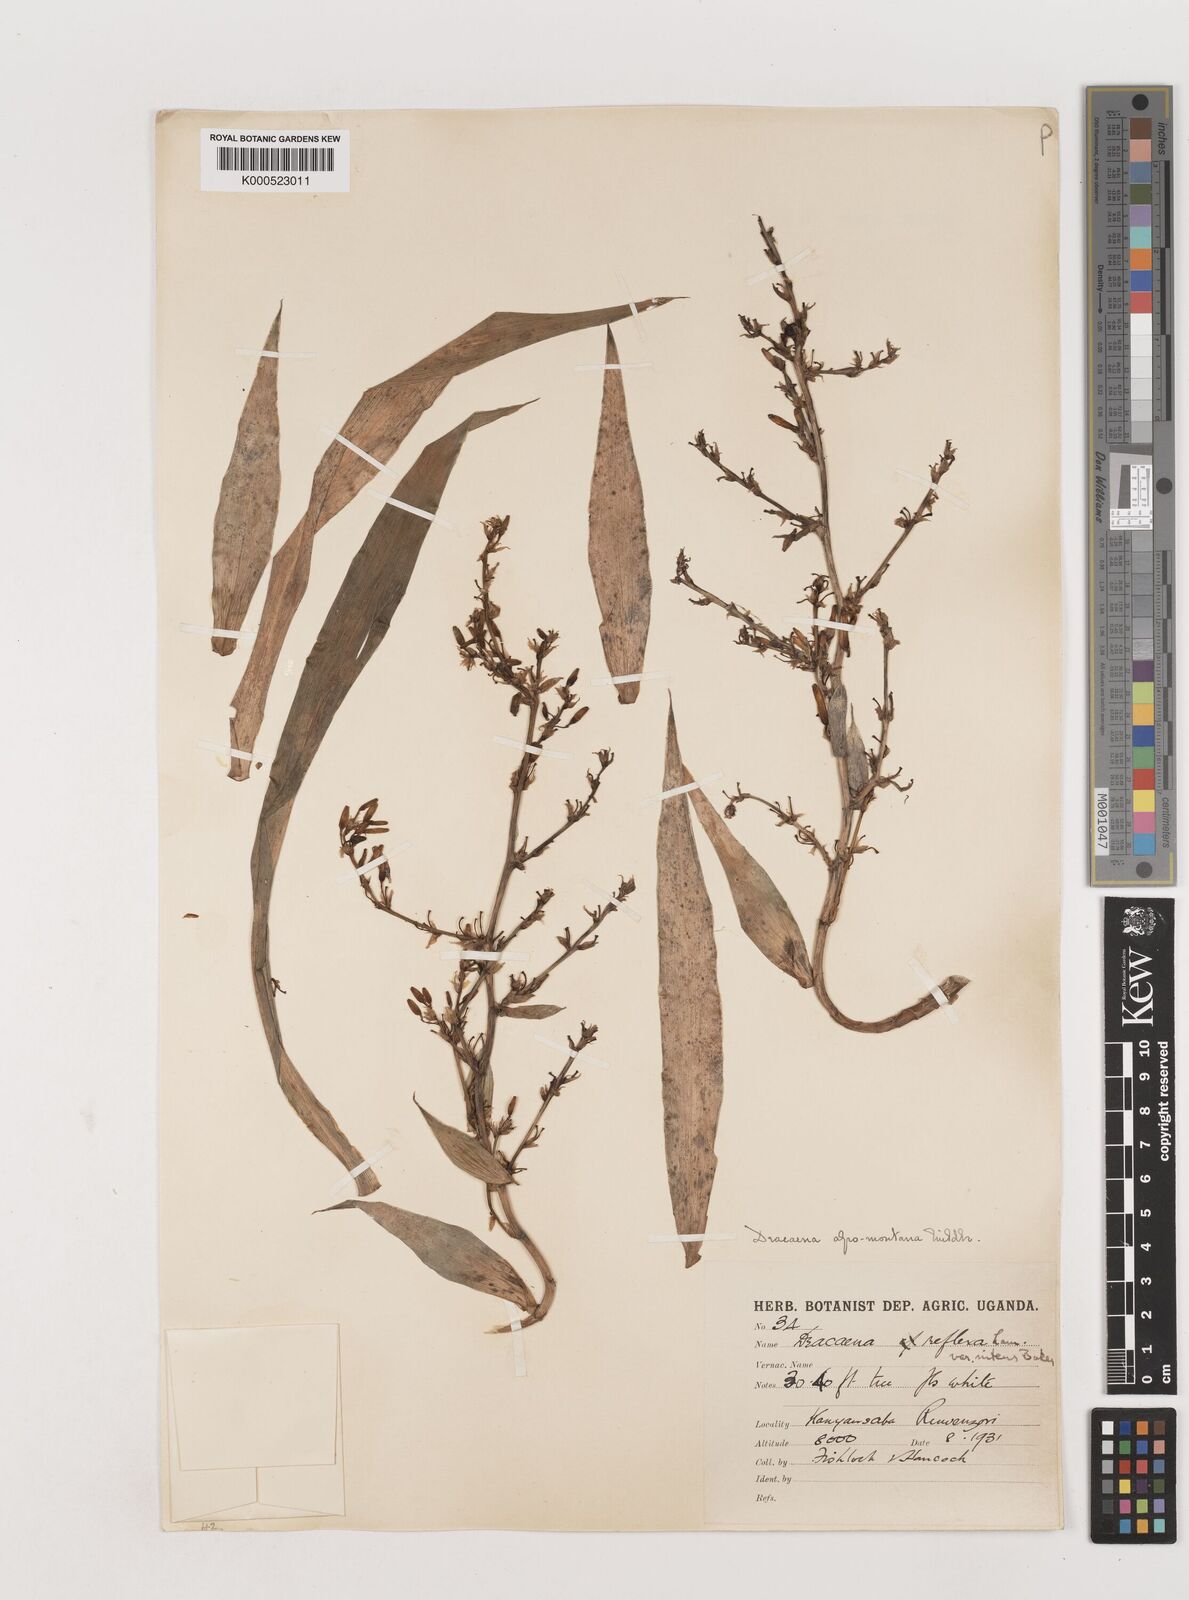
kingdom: Plantae
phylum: Tracheophyta
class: Liliopsida
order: Asparagales
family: Asparagaceae
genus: Dracaena
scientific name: Dracaena afromontana
